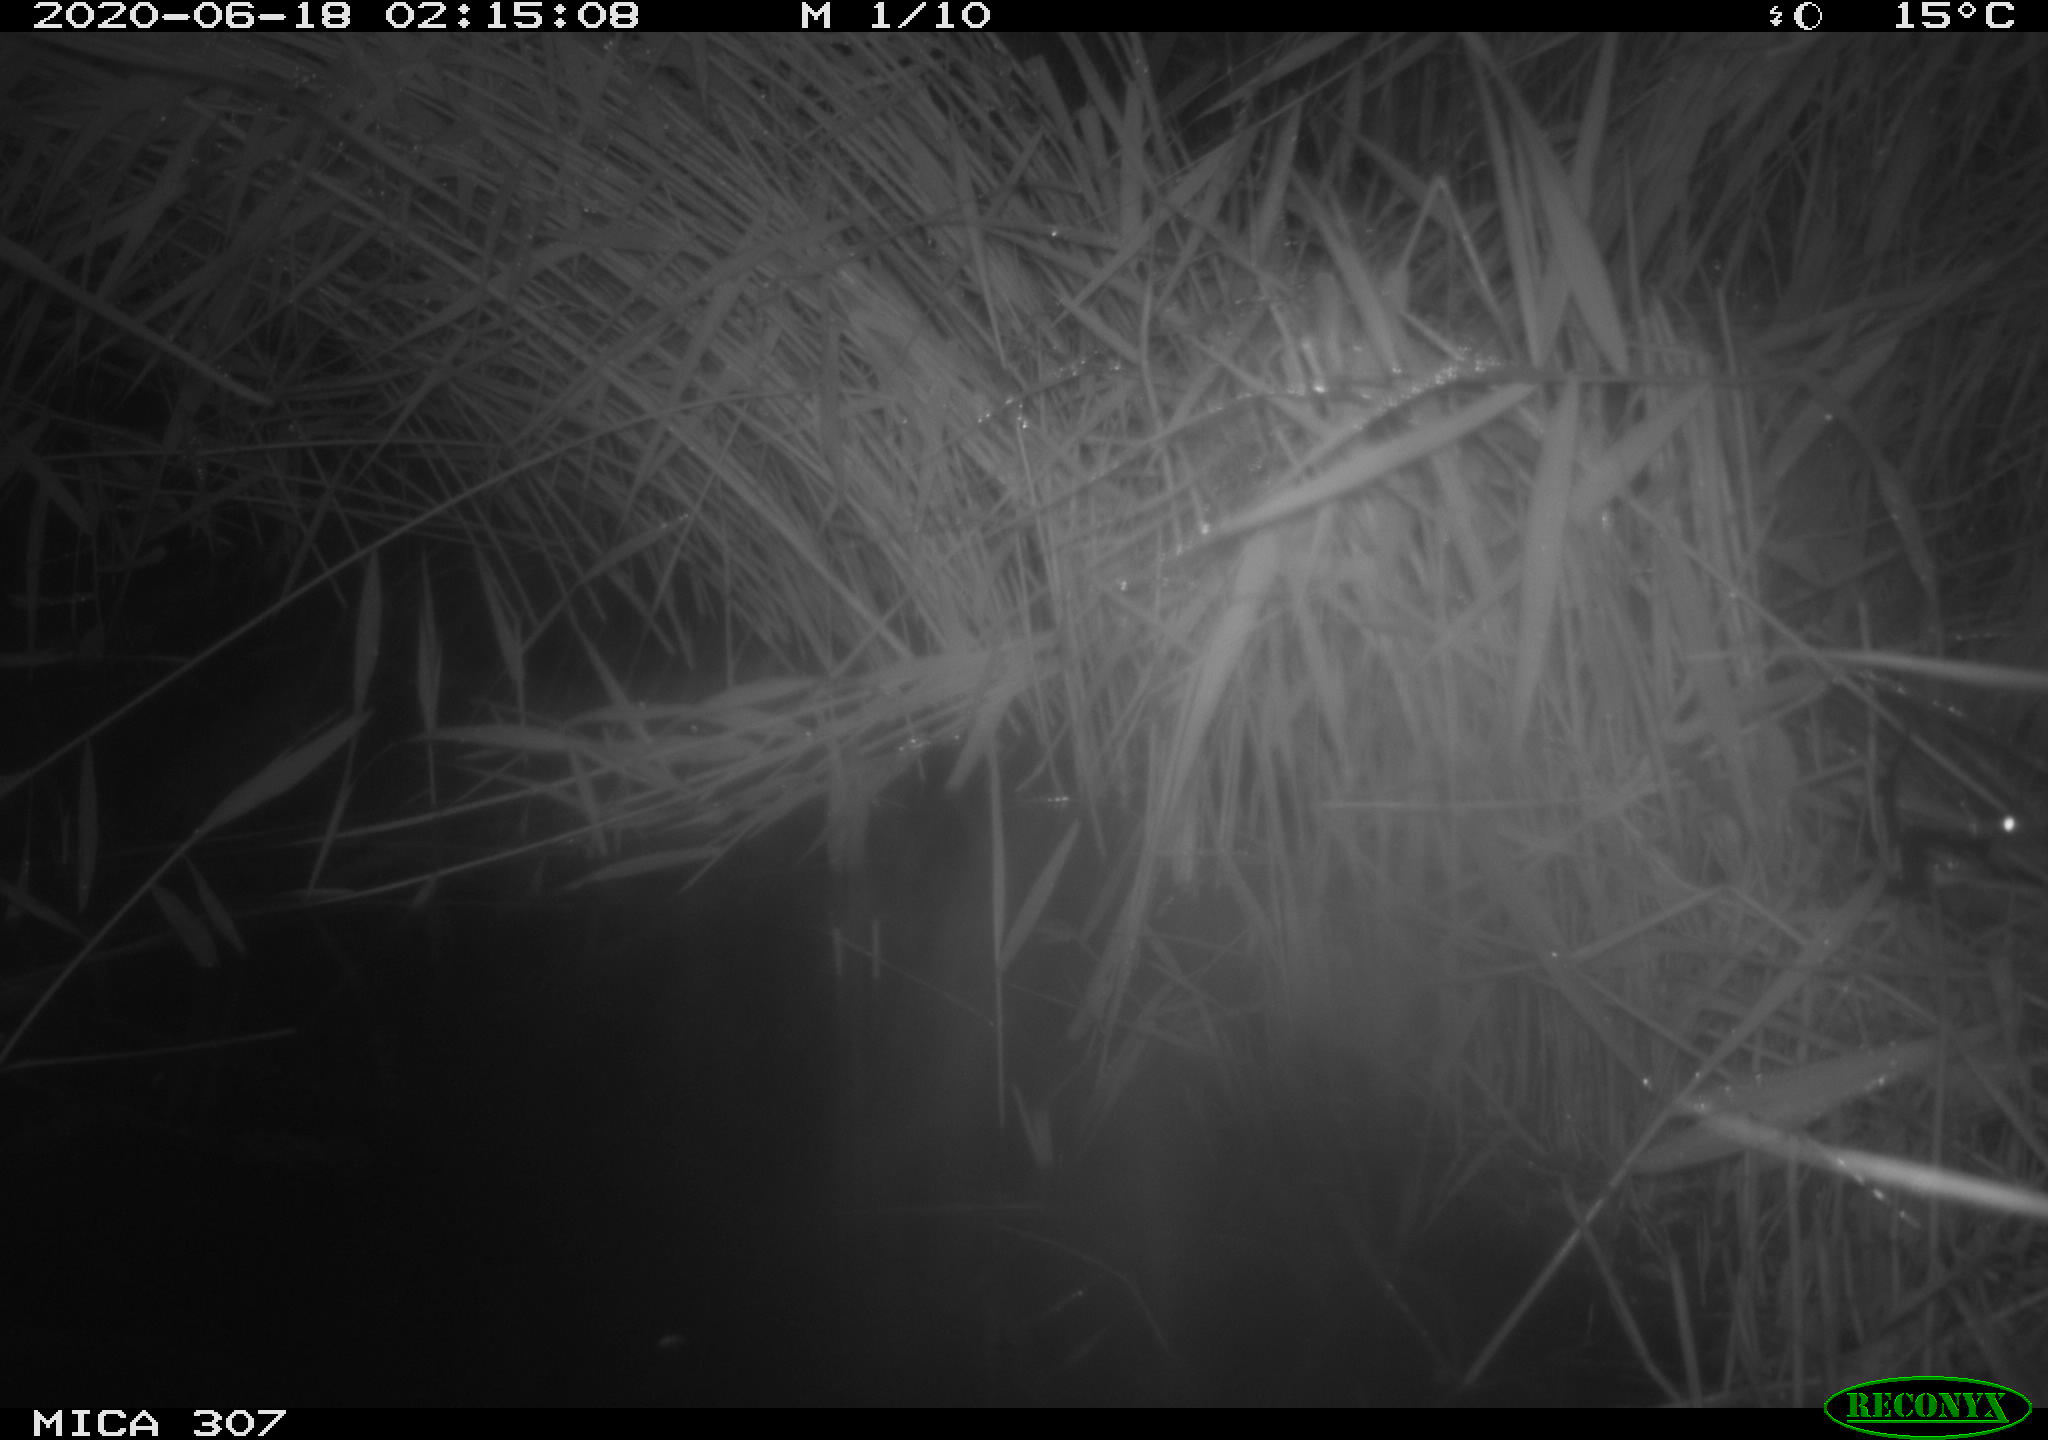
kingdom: Animalia
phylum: Chordata
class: Mammalia
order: Rodentia
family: Muridae
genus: Rattus
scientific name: Rattus norvegicus
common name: Brown rat
